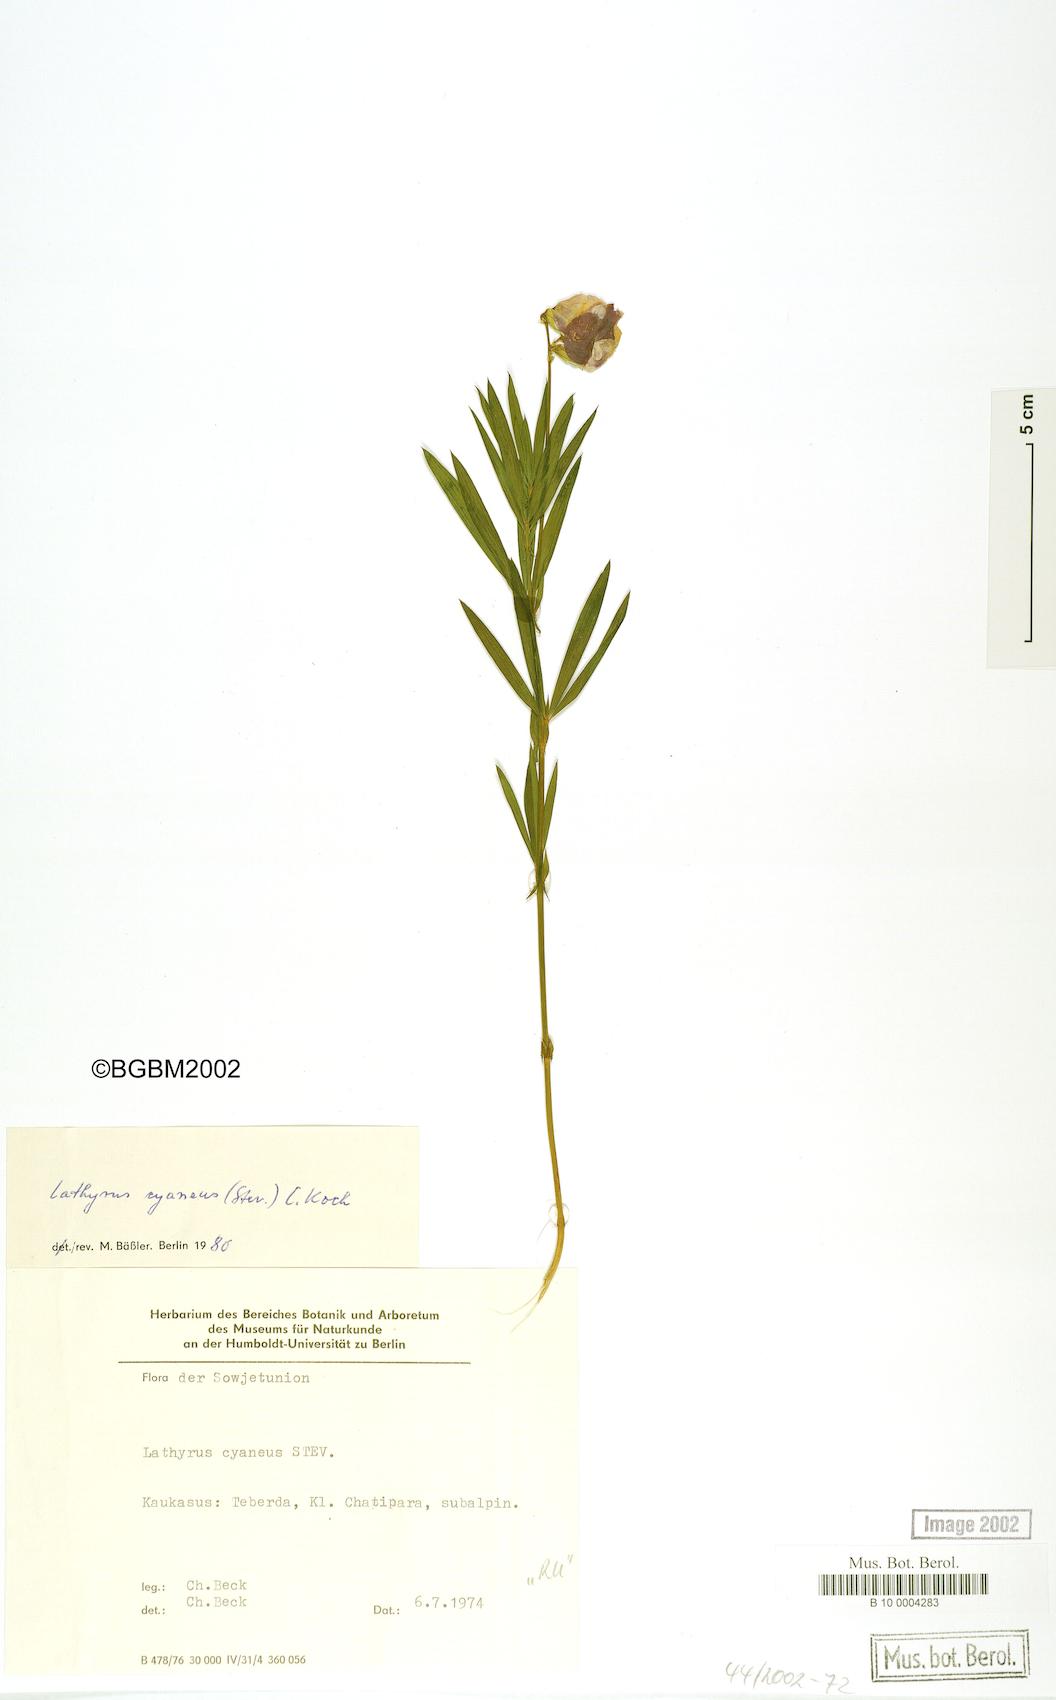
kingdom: Plantae
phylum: Tracheophyta
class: Magnoliopsida
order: Fabales
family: Fabaceae
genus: Lathyrus
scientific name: Lathyrus cyaneus
